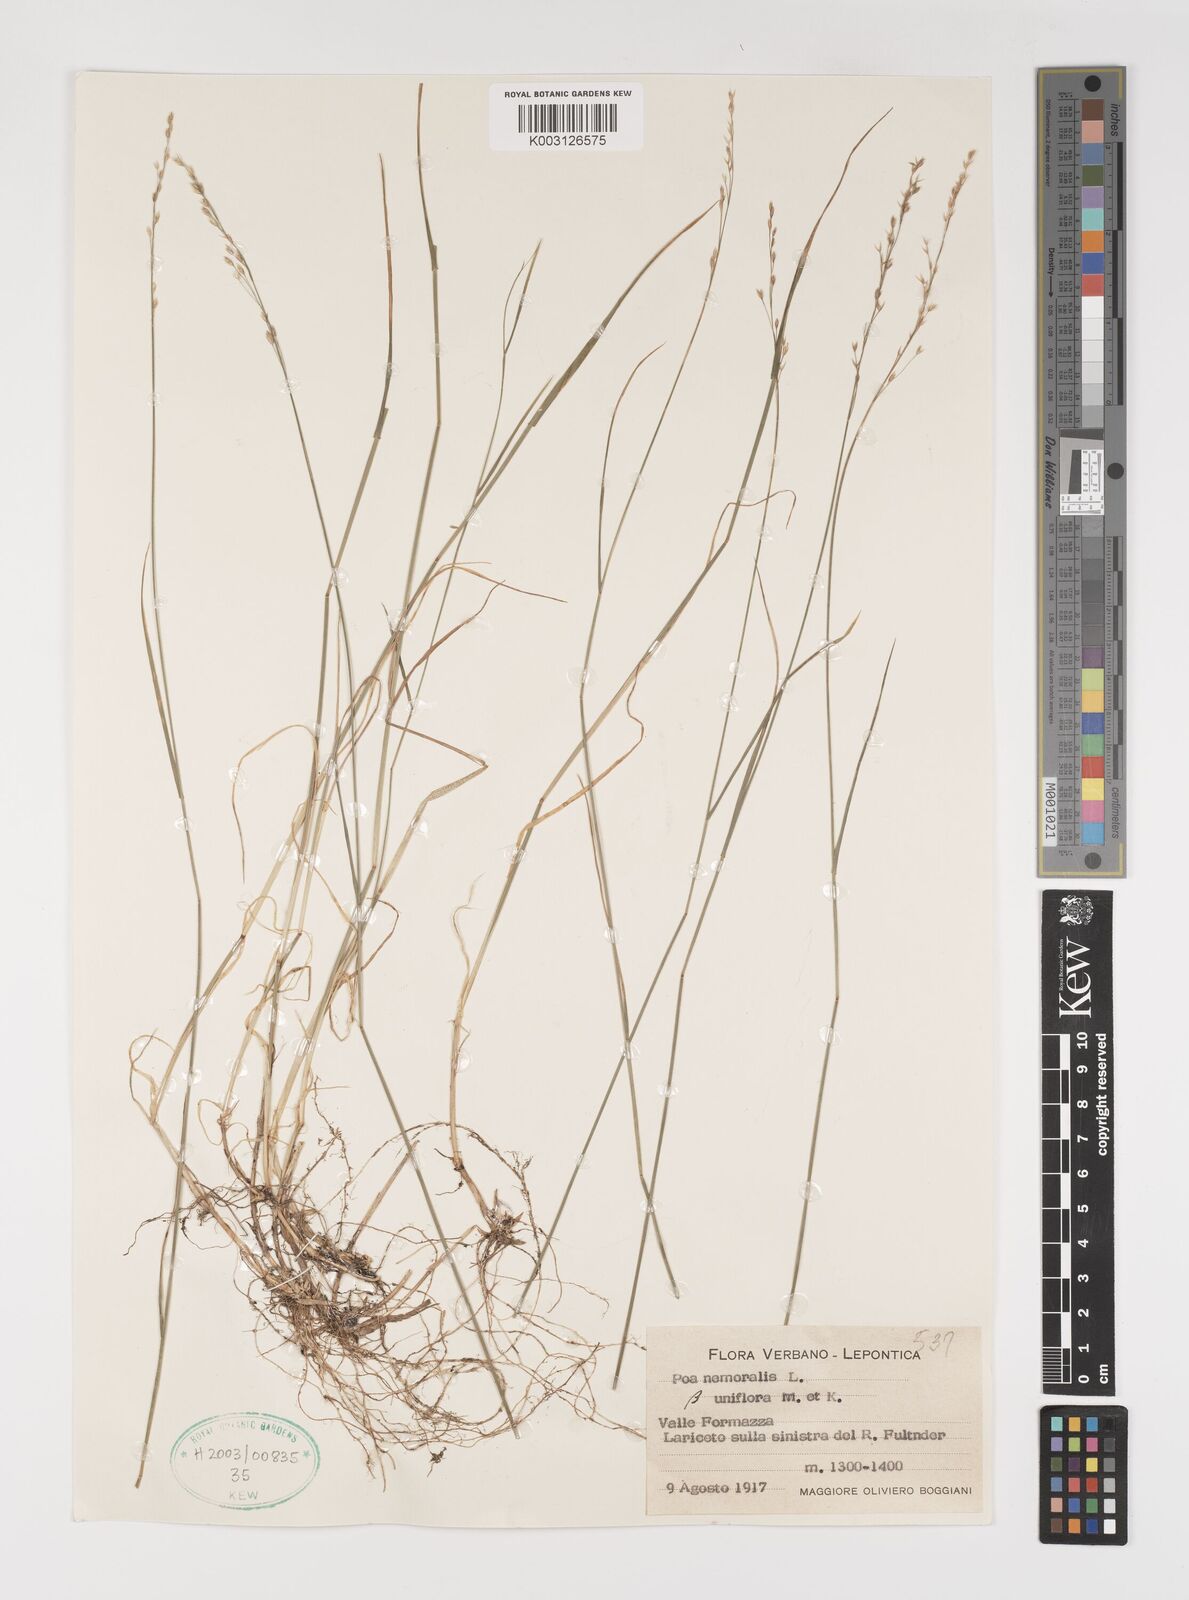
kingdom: Plantae
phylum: Tracheophyta
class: Liliopsida
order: Poales
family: Poaceae
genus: Poa
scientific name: Poa nemoralis
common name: Wood bluegrass
